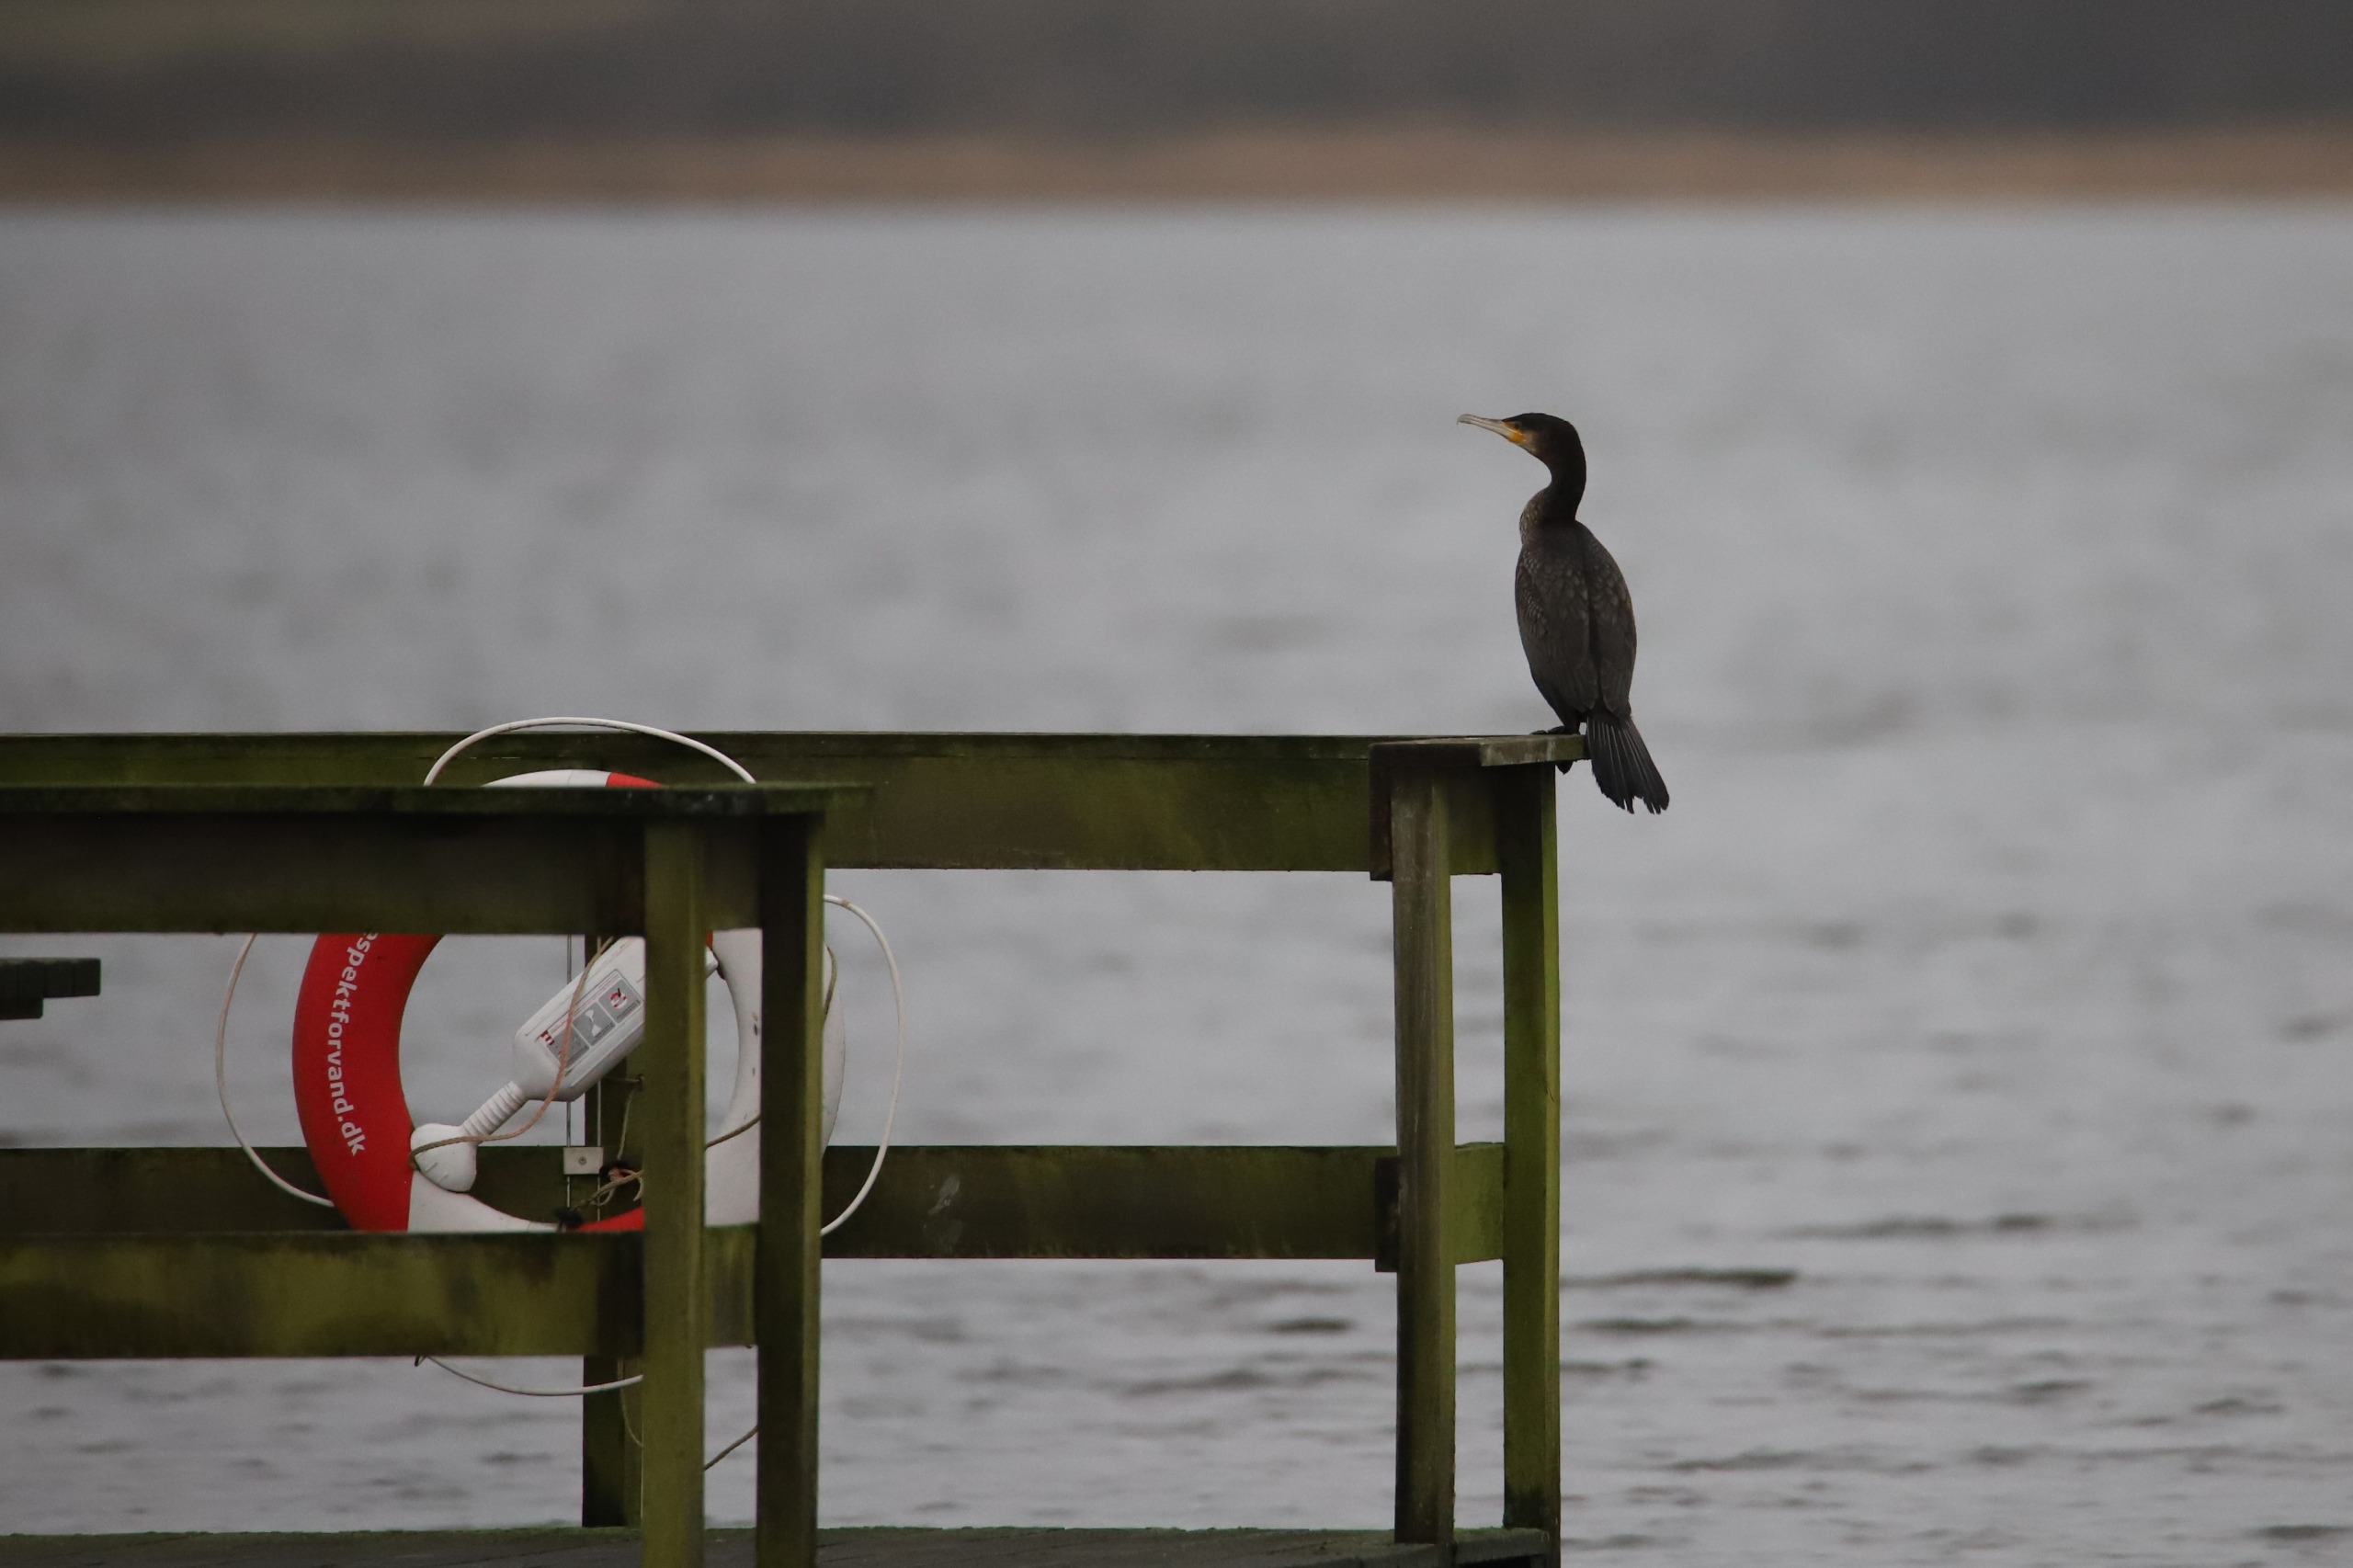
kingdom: Animalia
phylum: Chordata
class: Aves
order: Suliformes
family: Phalacrocoracidae
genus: Phalacrocorax
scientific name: Phalacrocorax carbo
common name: Skarv
